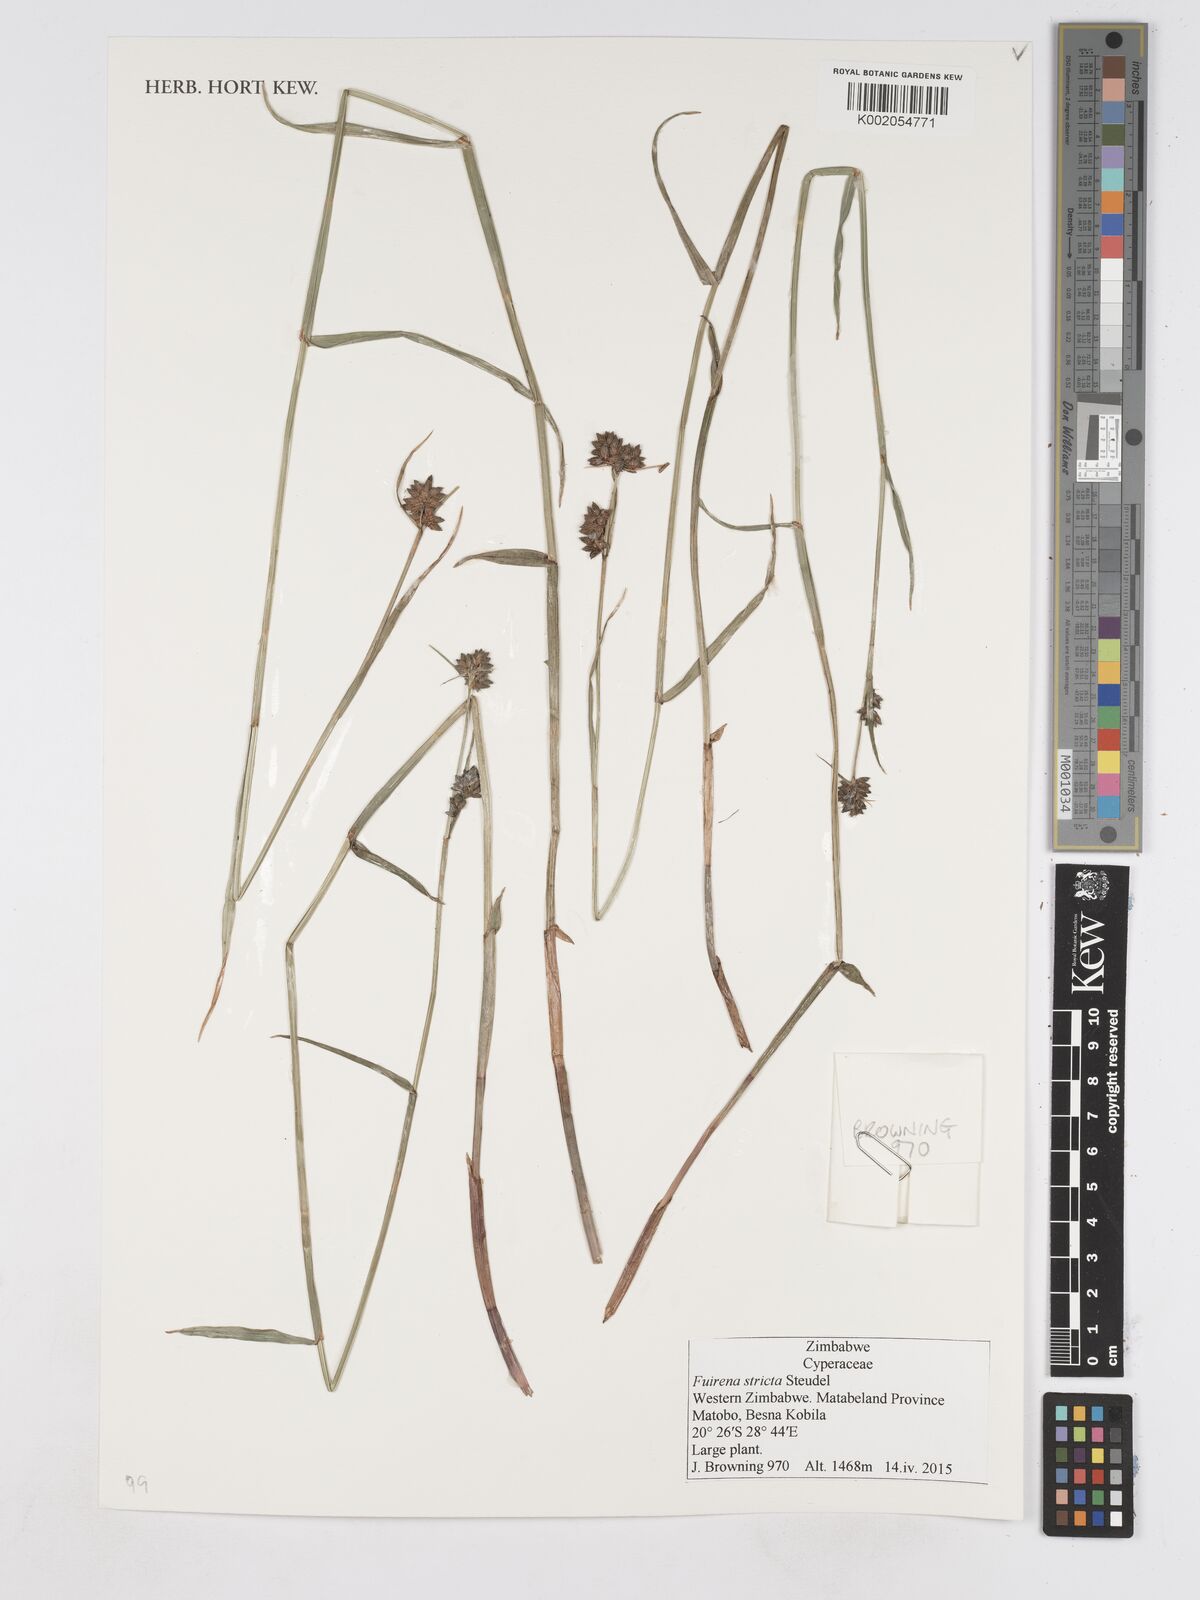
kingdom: Plantae
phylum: Tracheophyta
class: Liliopsida
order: Poales
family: Cyperaceae
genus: Fuirena
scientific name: Fuirena stricta
